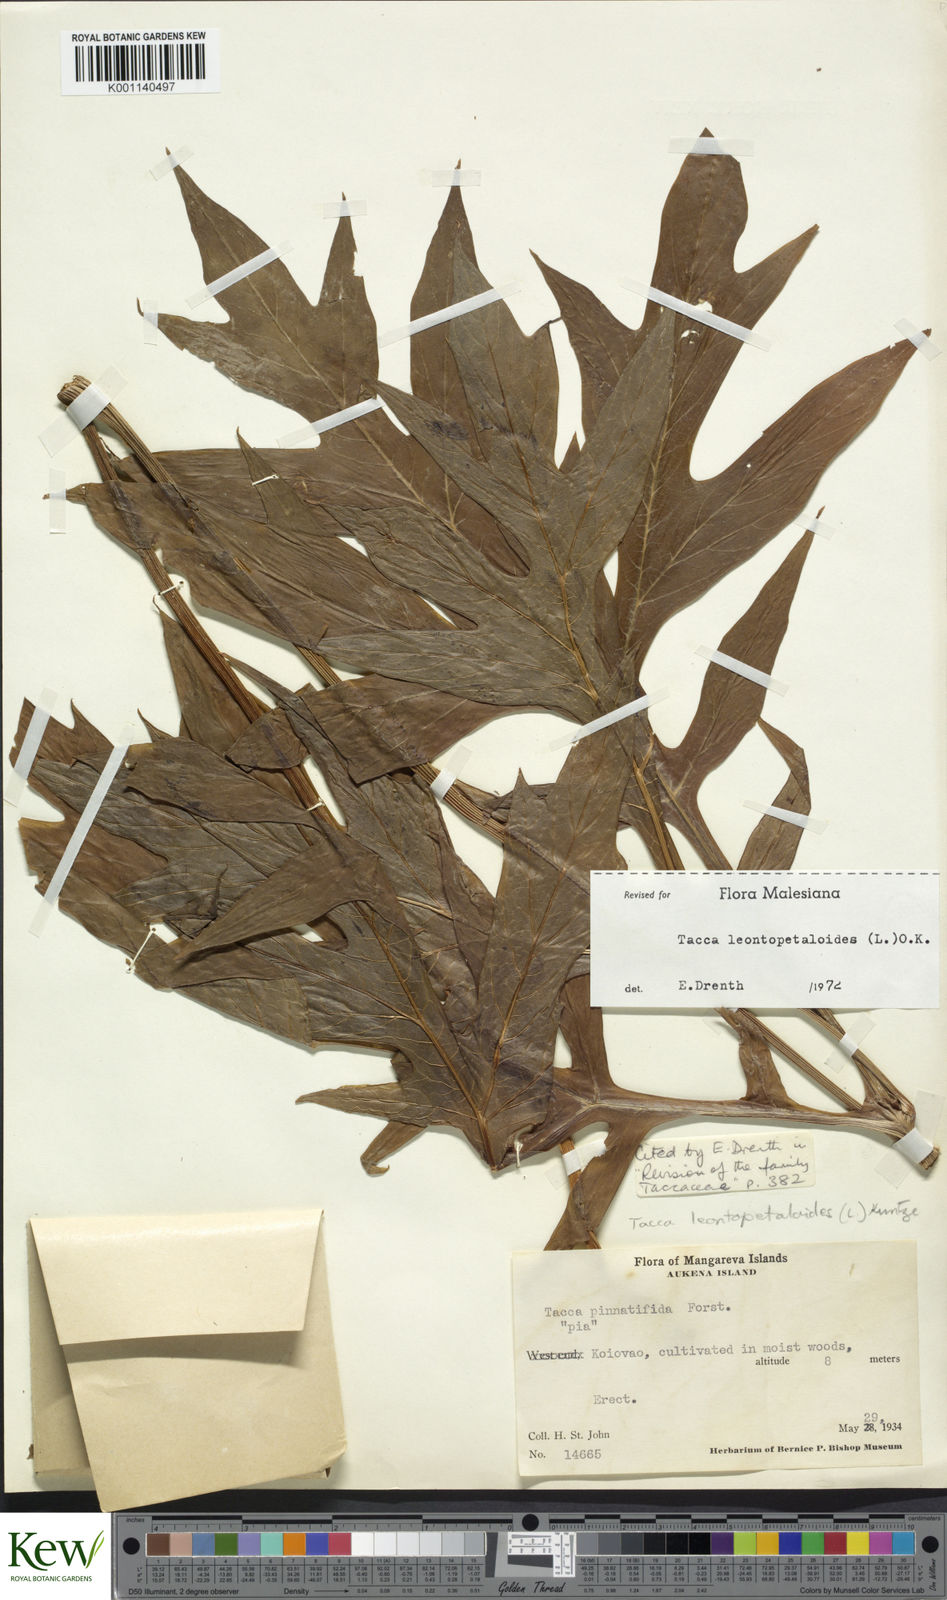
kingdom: Plantae
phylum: Tracheophyta
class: Liliopsida
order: Dioscoreales
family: Dioscoreaceae
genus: Tacca
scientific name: Tacca leontopetaloides
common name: Arrowroot
